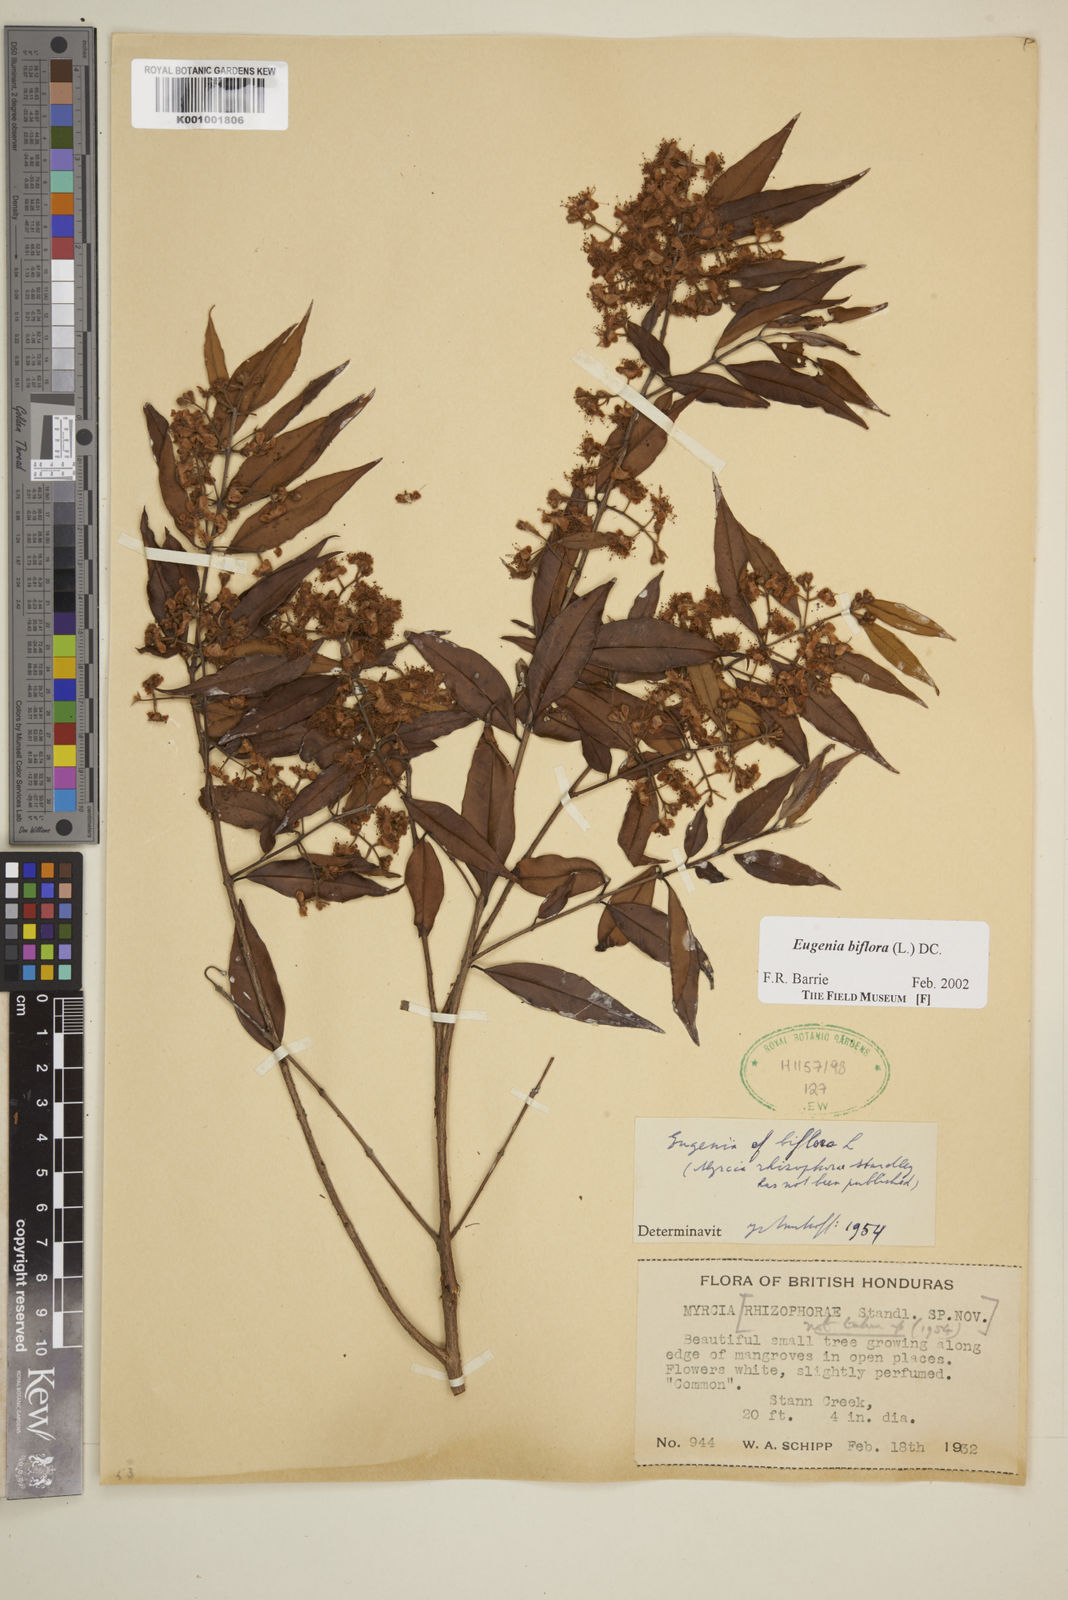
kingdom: Plantae
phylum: Tracheophyta
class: Magnoliopsida
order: Myrtales
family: Myrtaceae
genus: Eugenia
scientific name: Eugenia biflora
